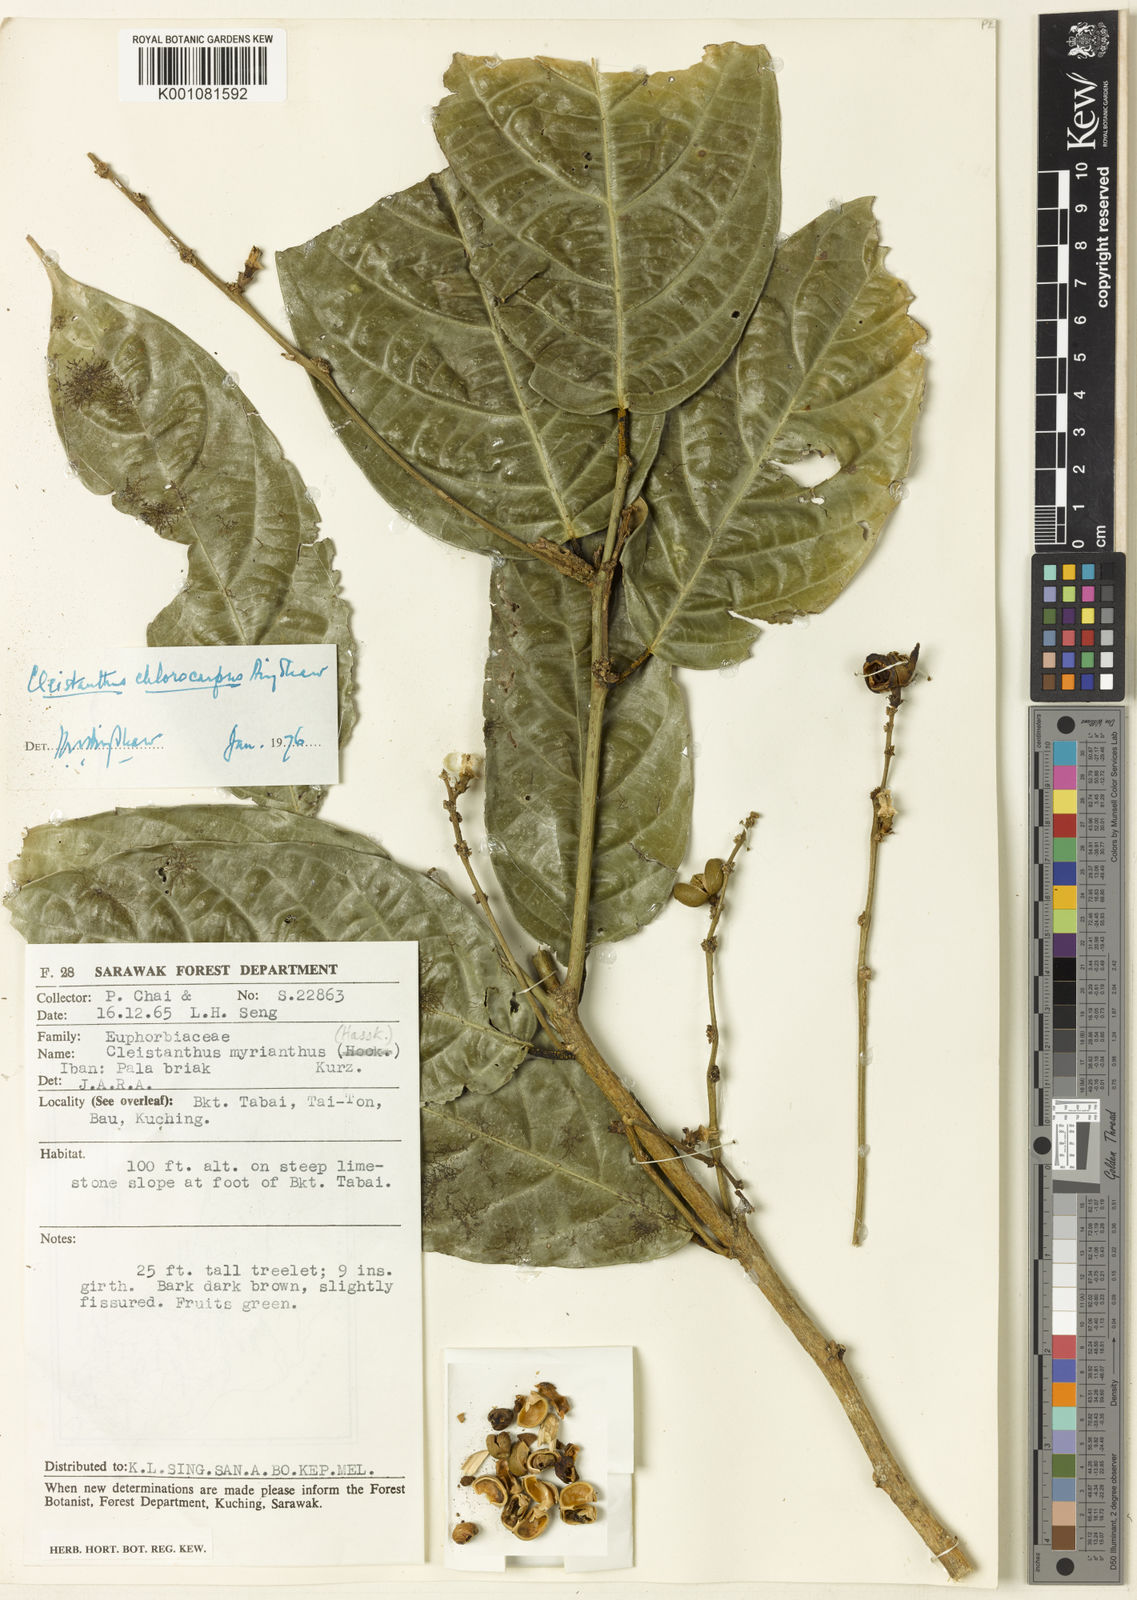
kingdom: Plantae
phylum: Tracheophyta
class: Magnoliopsida
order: Malpighiales
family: Phyllanthaceae
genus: Cleistanthus
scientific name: Cleistanthus chlorocarpus
